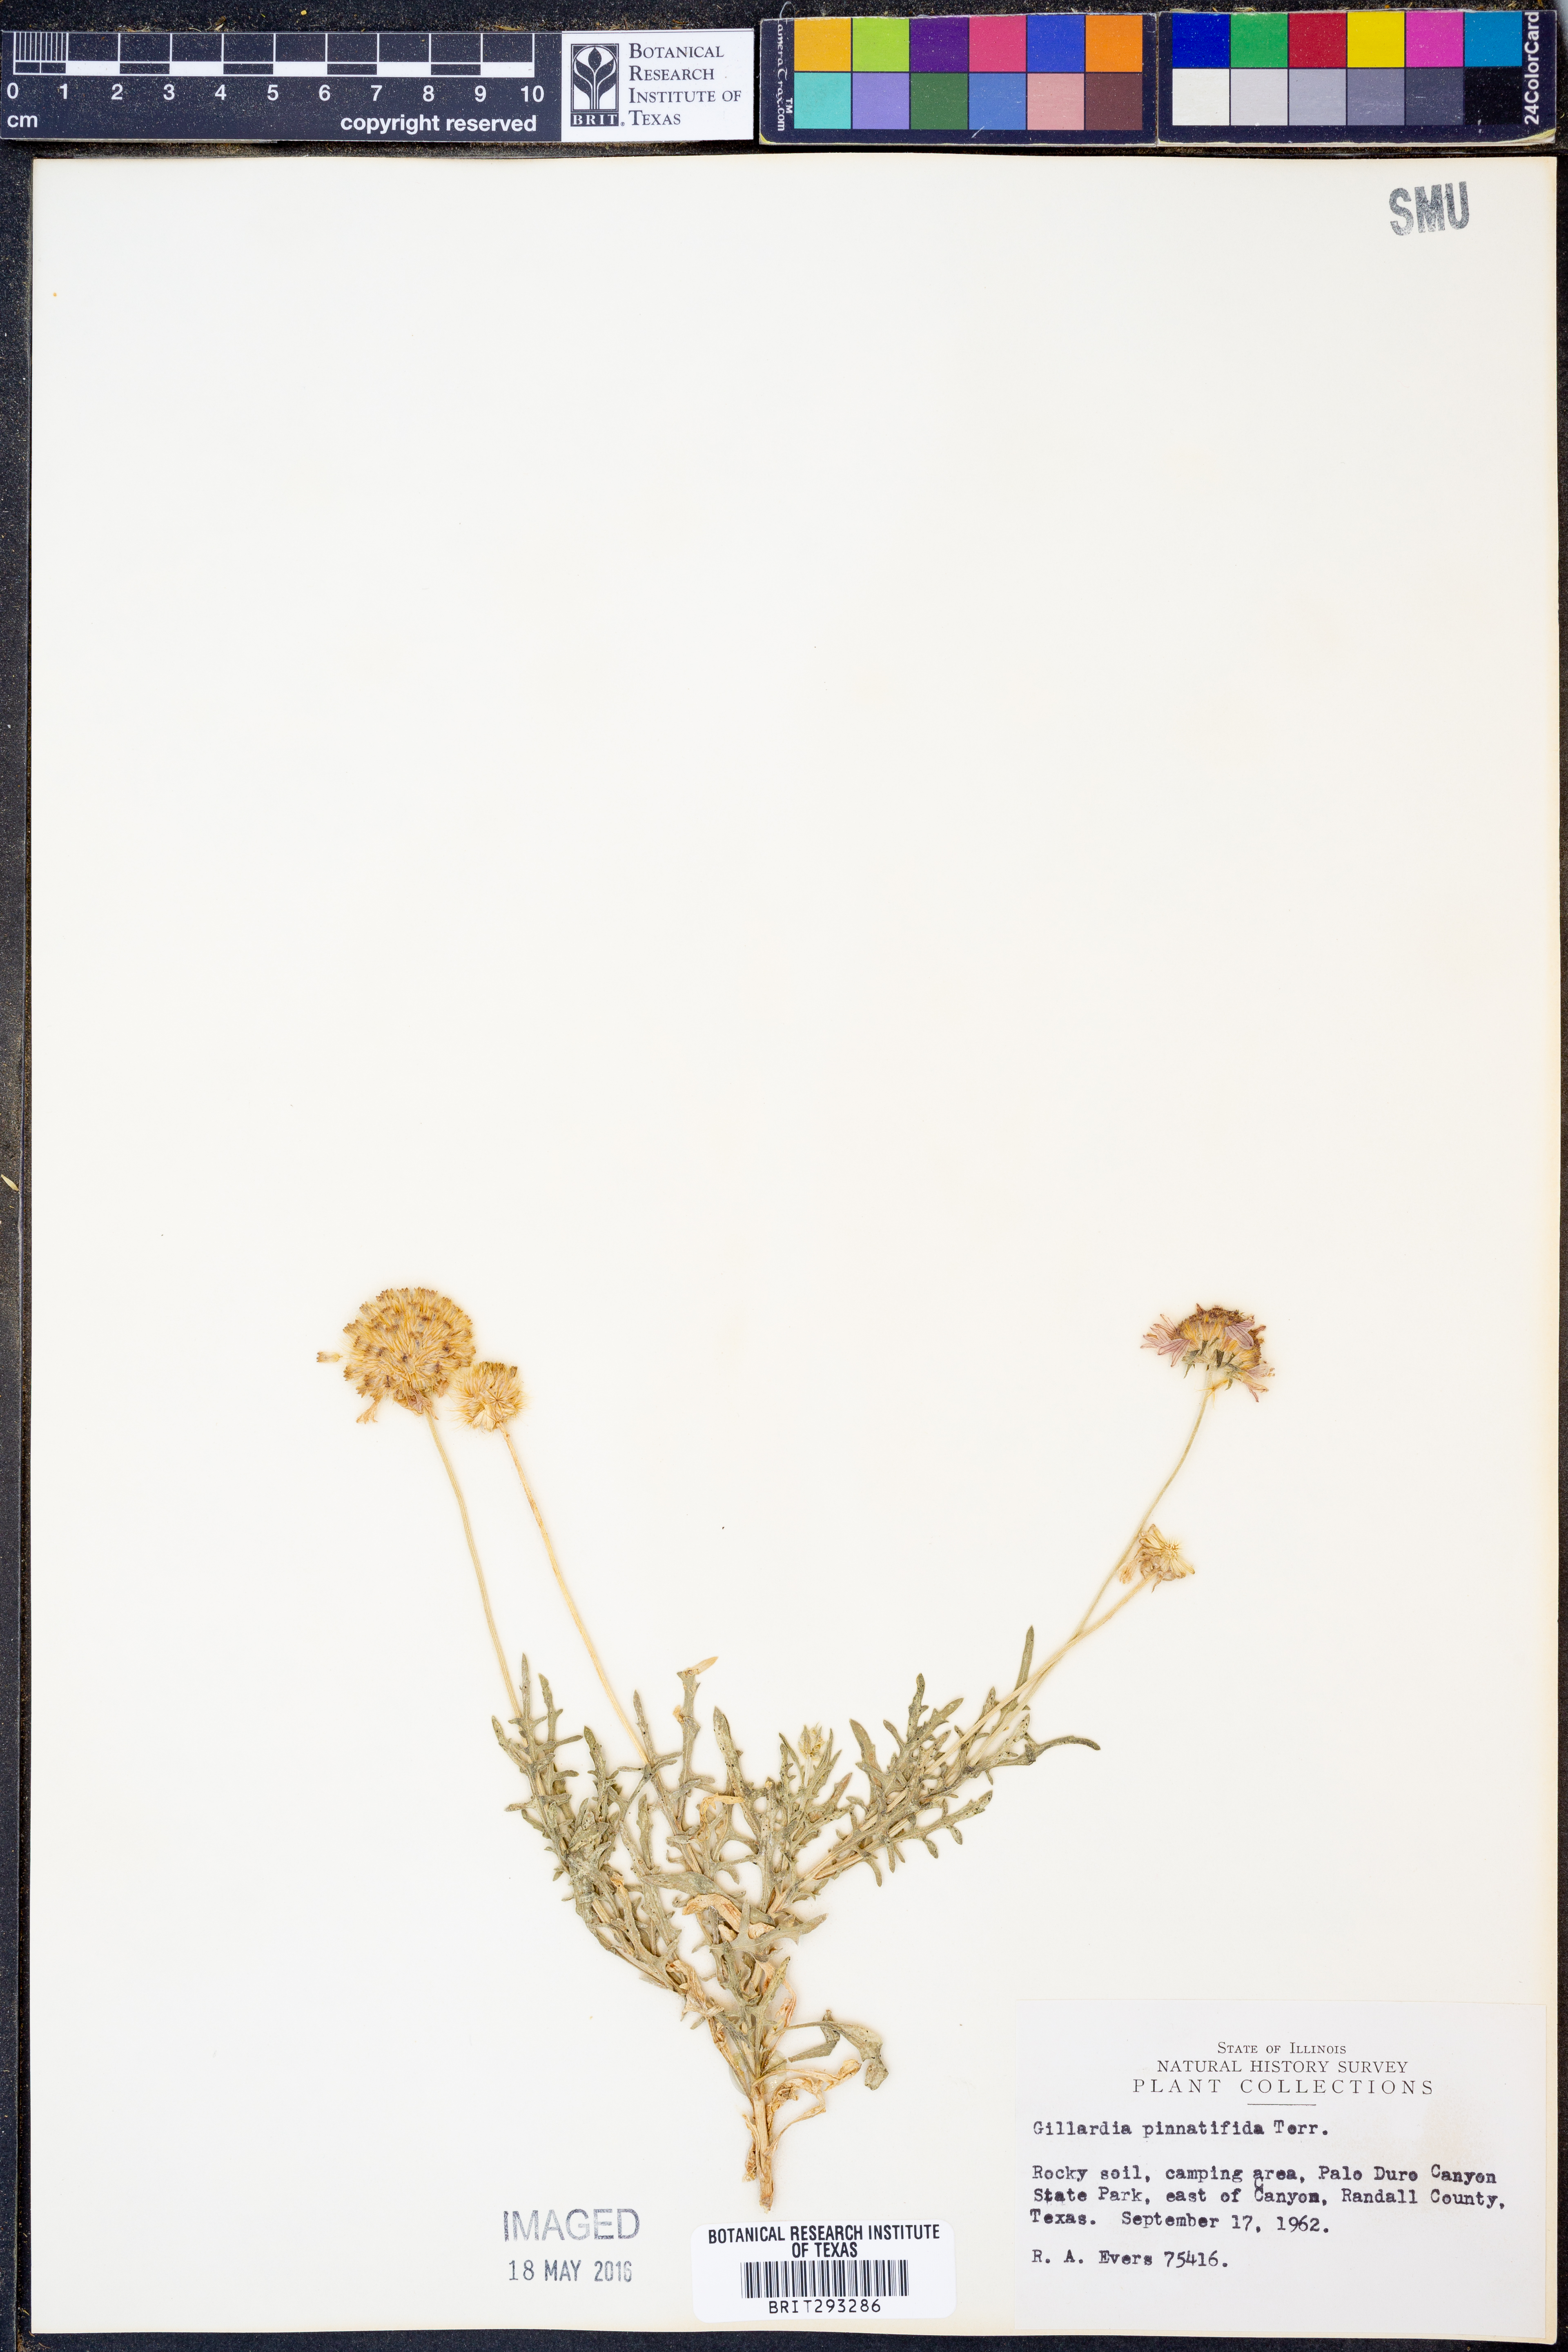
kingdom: Plantae
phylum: Tracheophyta
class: Magnoliopsida
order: Asterales
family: Asteraceae
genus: Gaillardia
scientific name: Gaillardia pinnatifida
